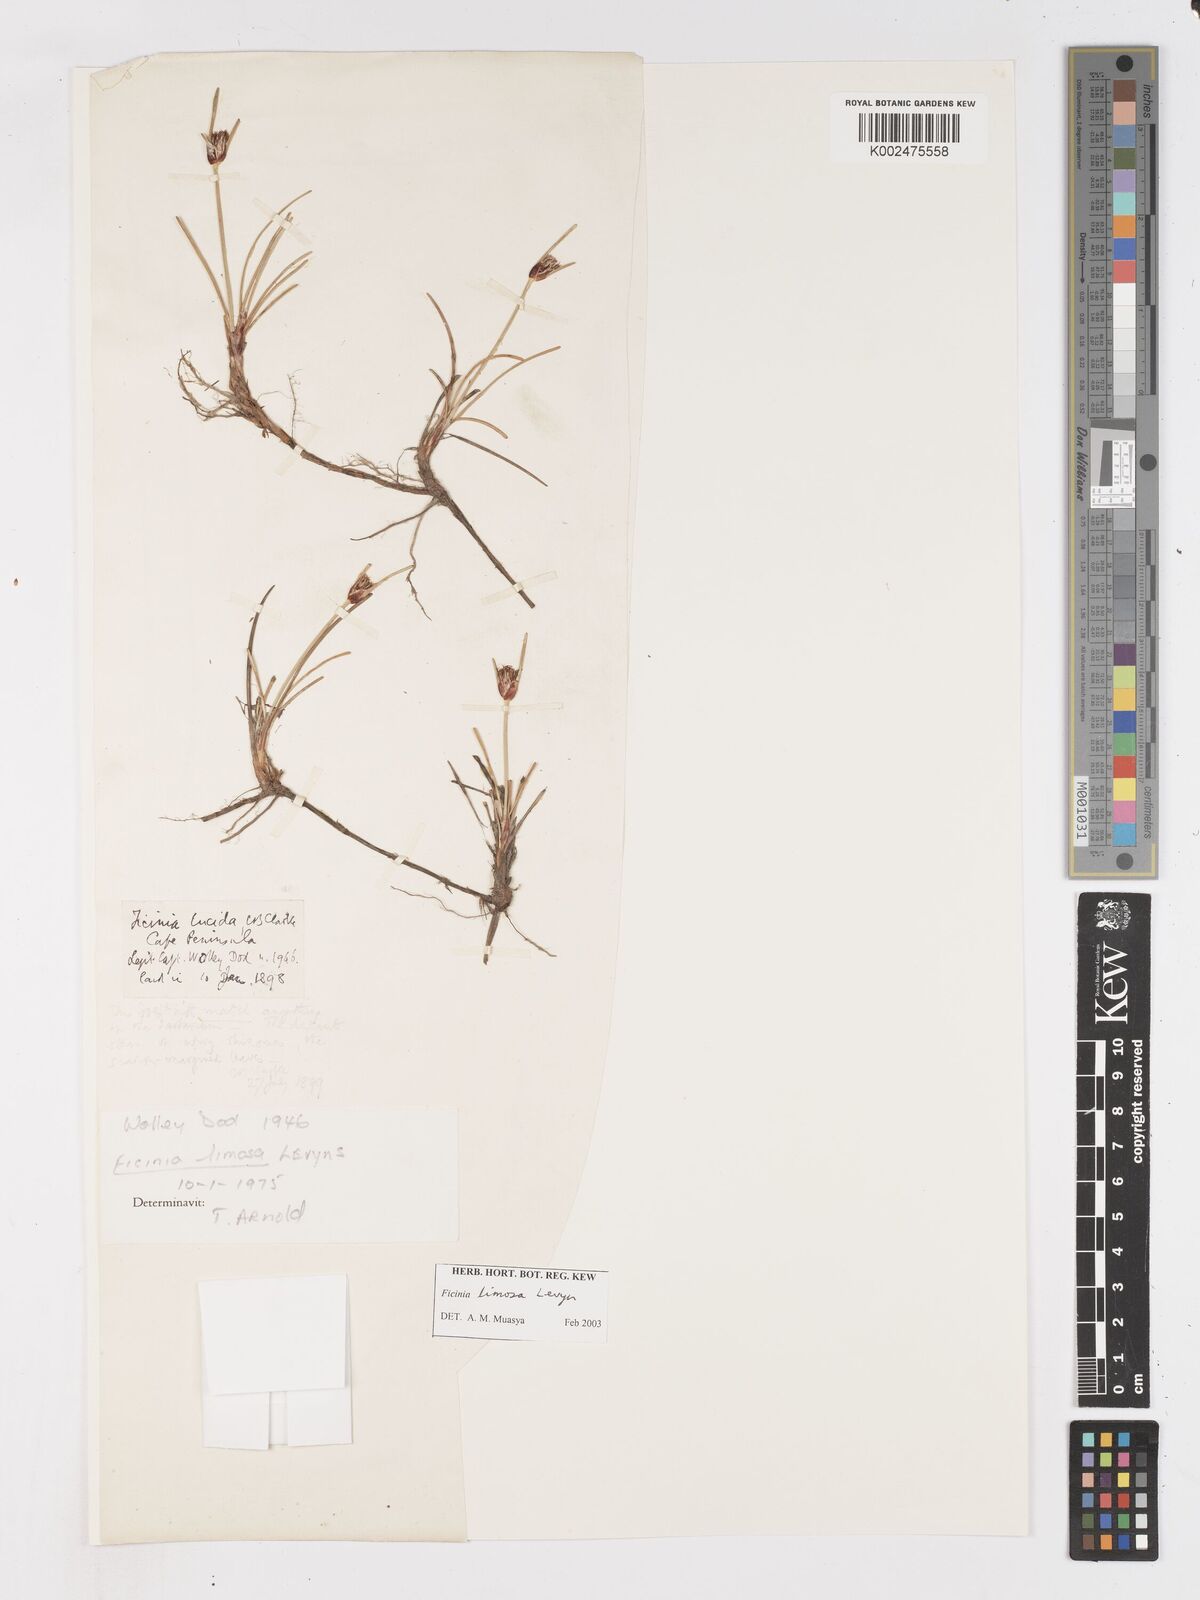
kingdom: Plantae
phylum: Tracheophyta
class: Liliopsida
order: Poales
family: Cyperaceae
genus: Ficinia
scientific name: Ficinia pygmaea
